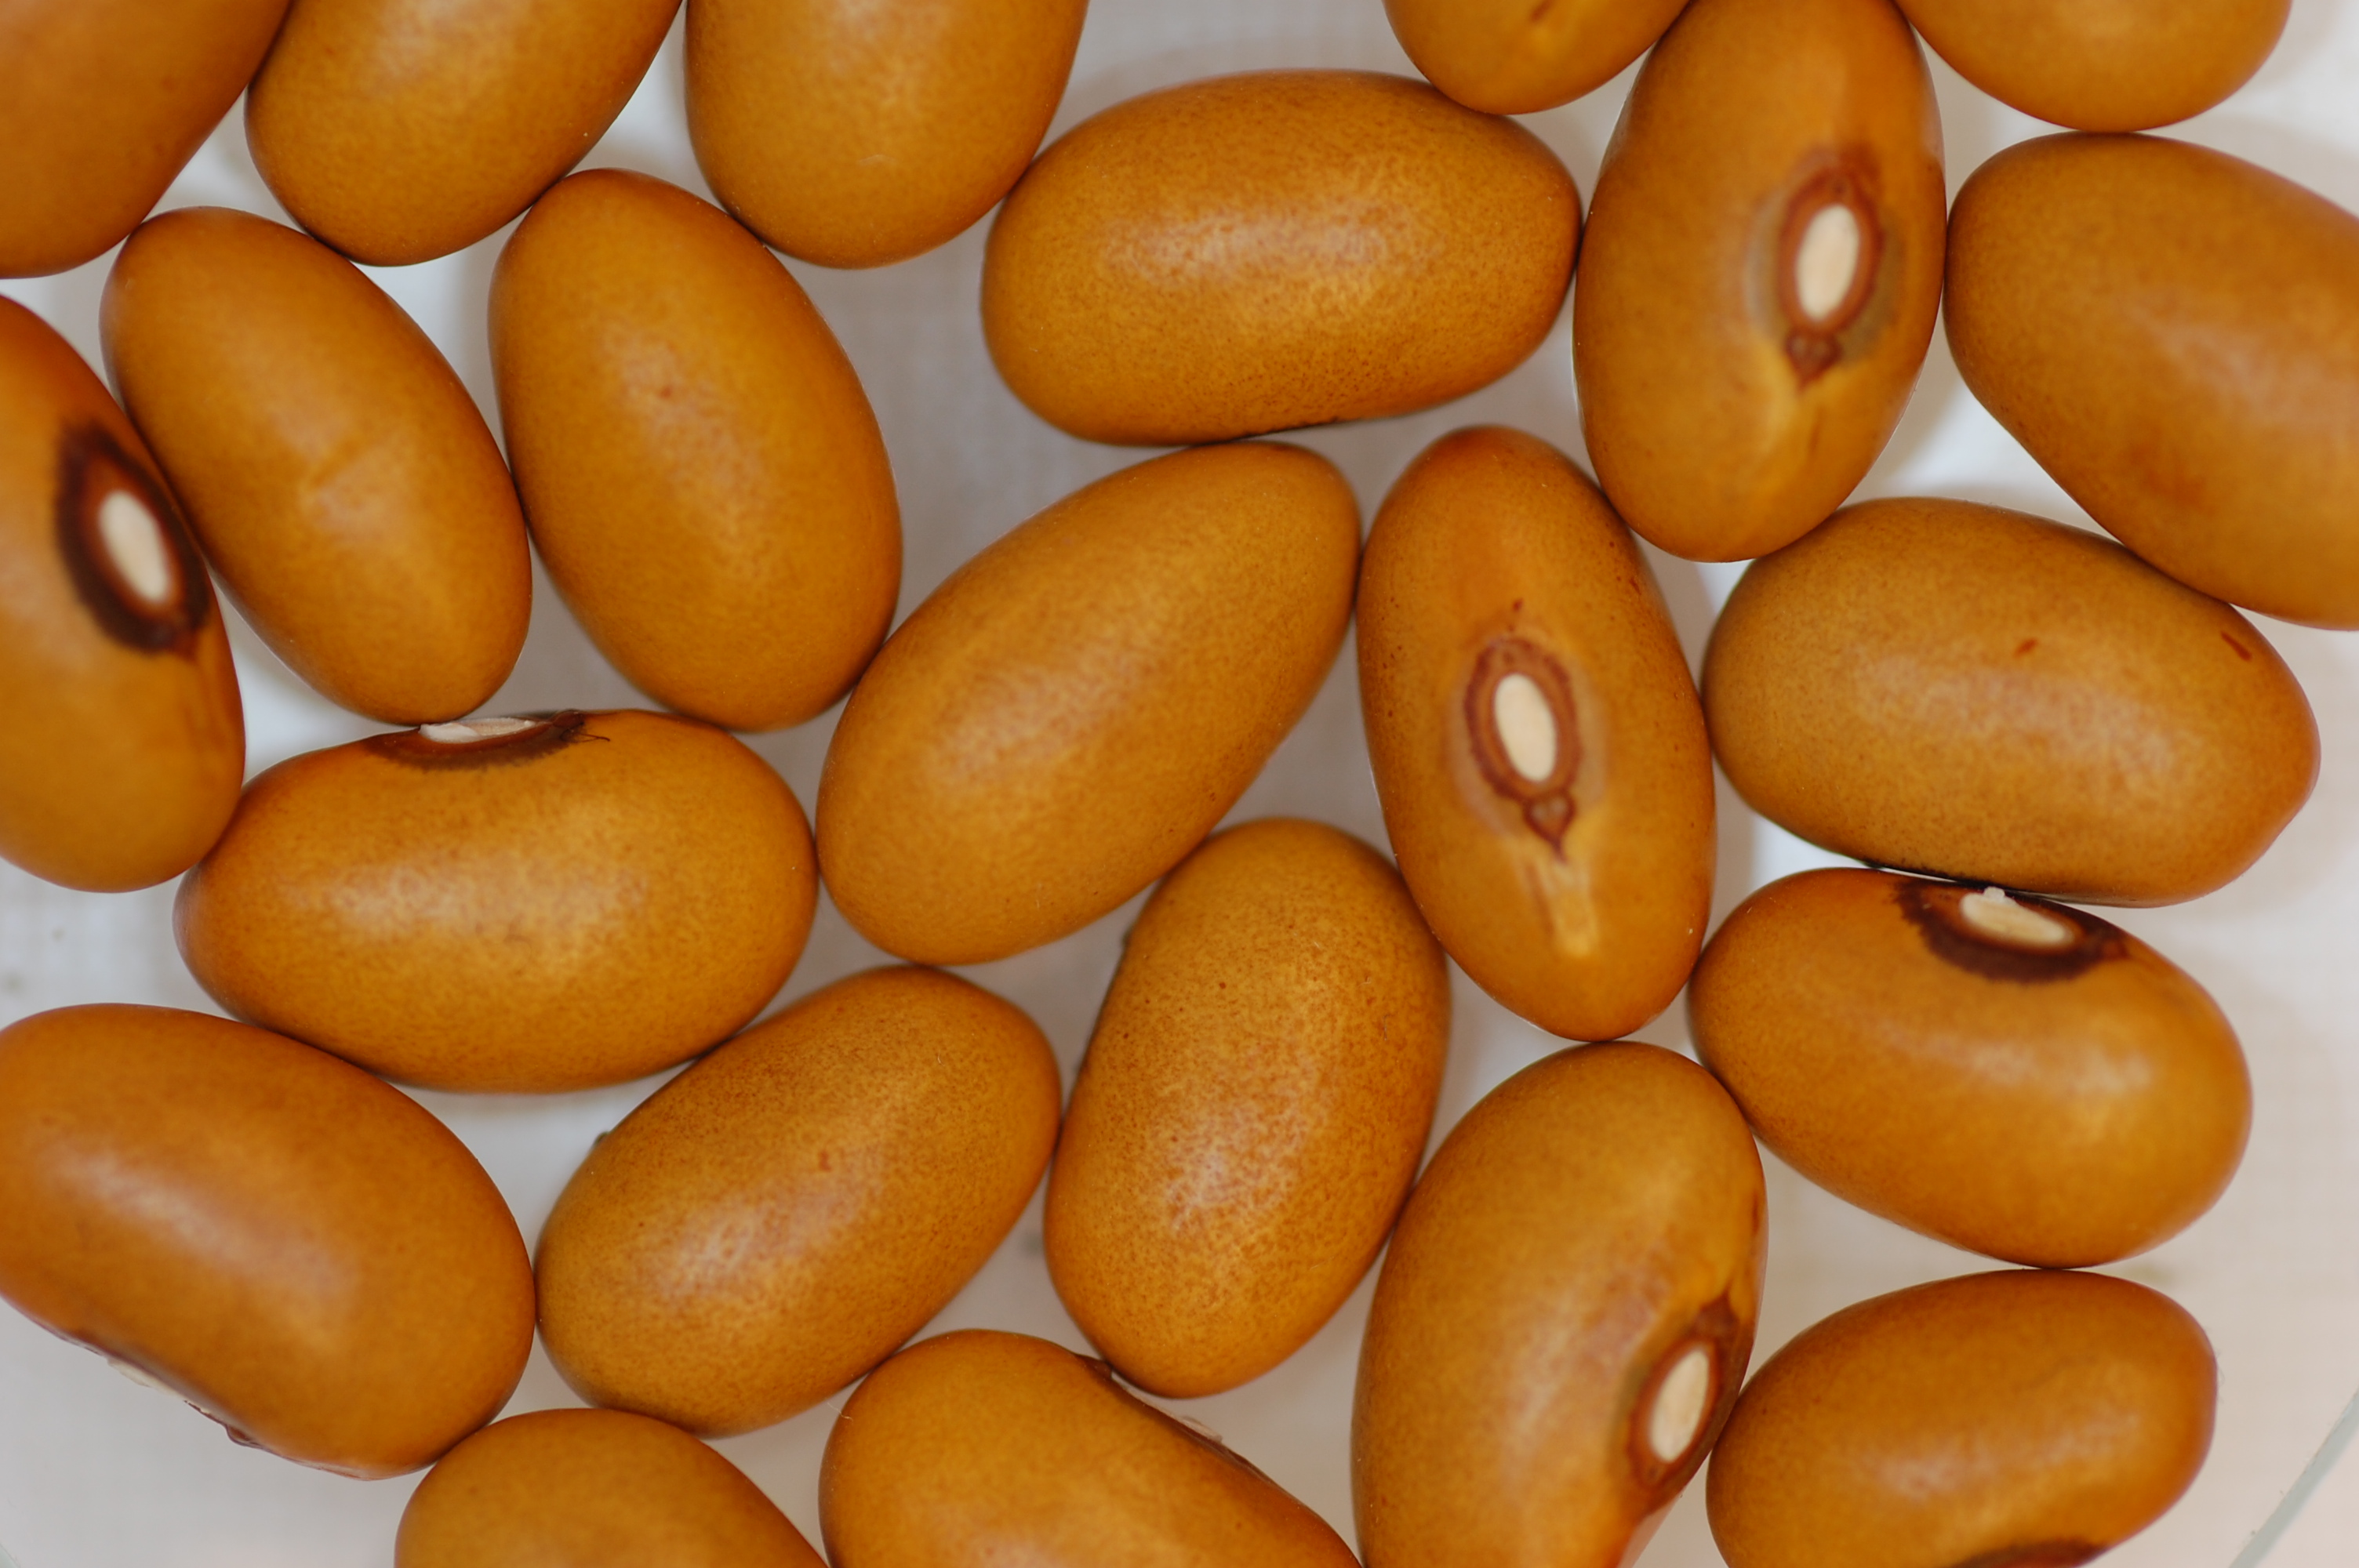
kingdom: Plantae
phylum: Tracheophyta
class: Magnoliopsida
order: Fabales
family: Fabaceae
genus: Phaseolus
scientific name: Phaseolus vulgaris
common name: Bean
